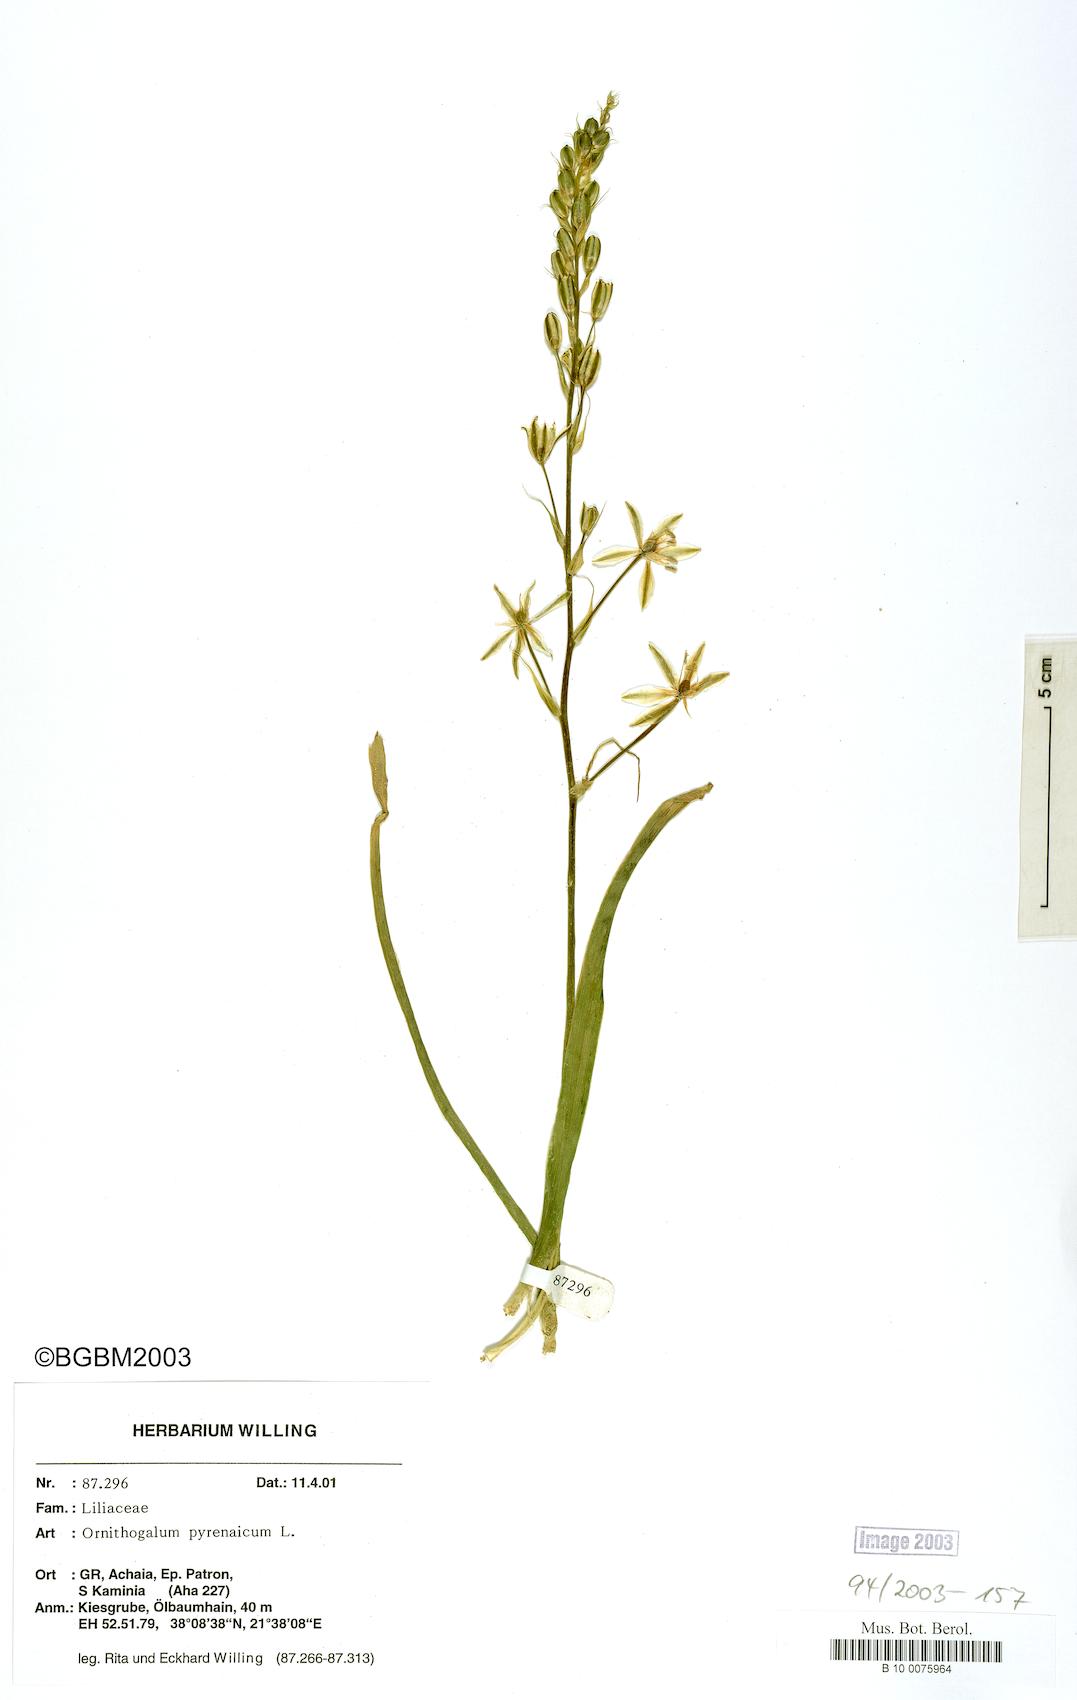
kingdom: Plantae
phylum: Tracheophyta
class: Liliopsida
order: Asparagales
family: Asparagaceae
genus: Ornithogalum
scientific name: Ornithogalum pyrenaicum
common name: Spiked star-of-bethlehem
